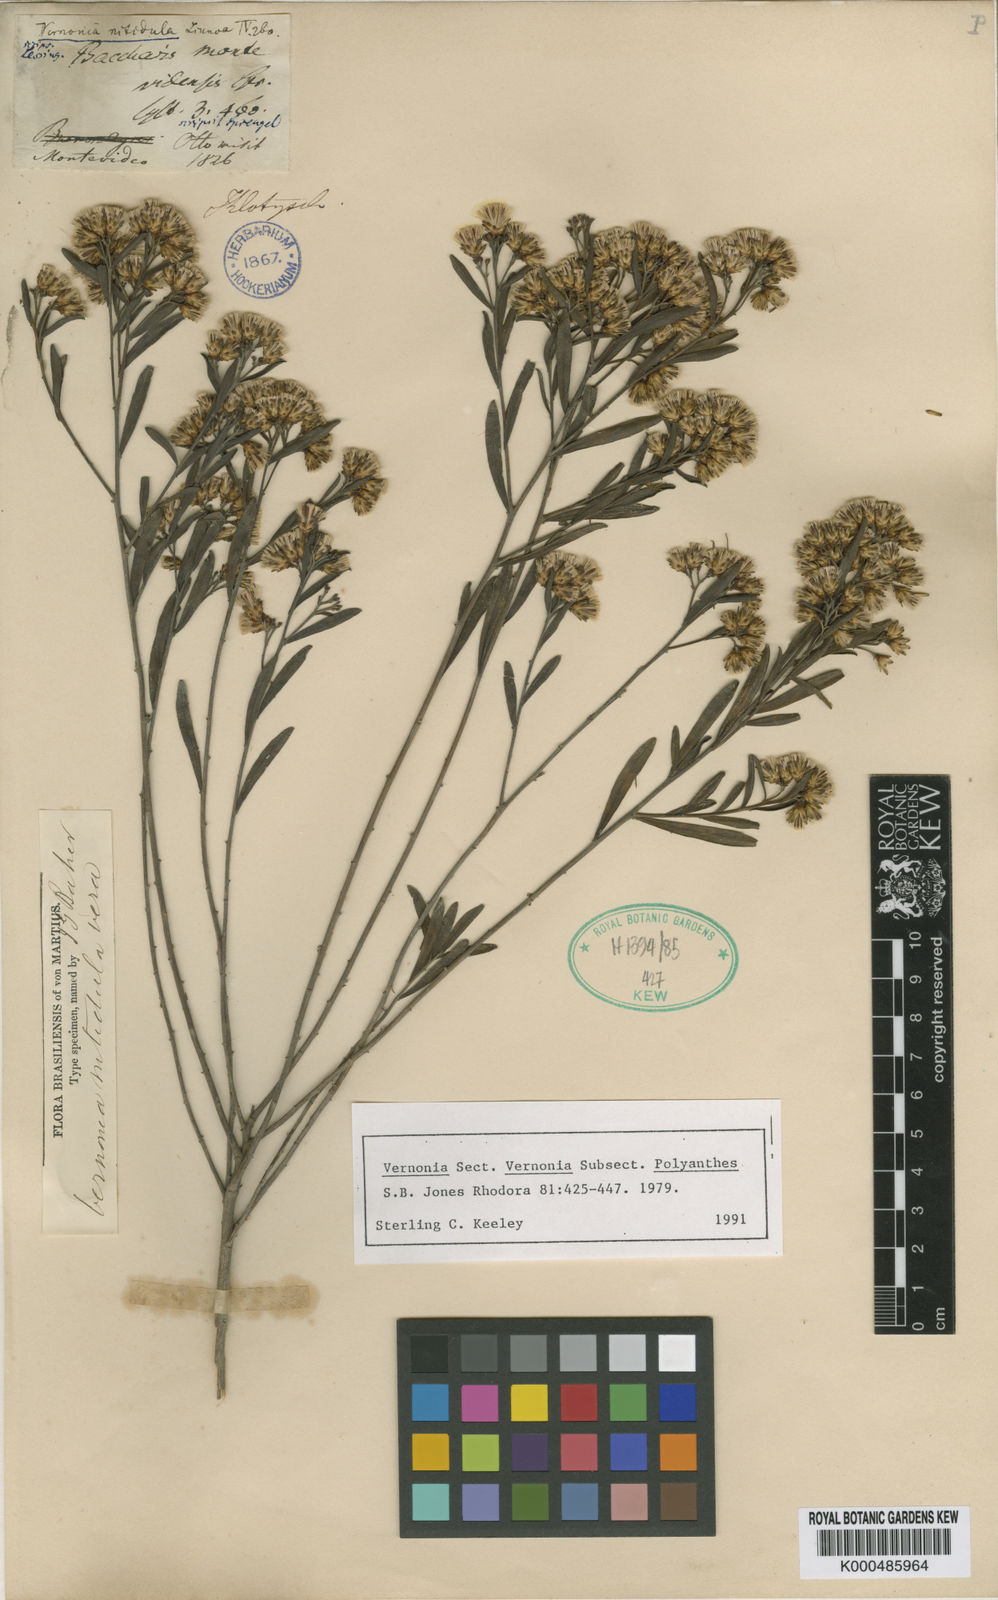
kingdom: Plantae
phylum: Tracheophyta
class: Magnoliopsida
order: Asterales
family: Asteraceae
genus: Vernonanthura
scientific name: Vernonanthura montevidensis
